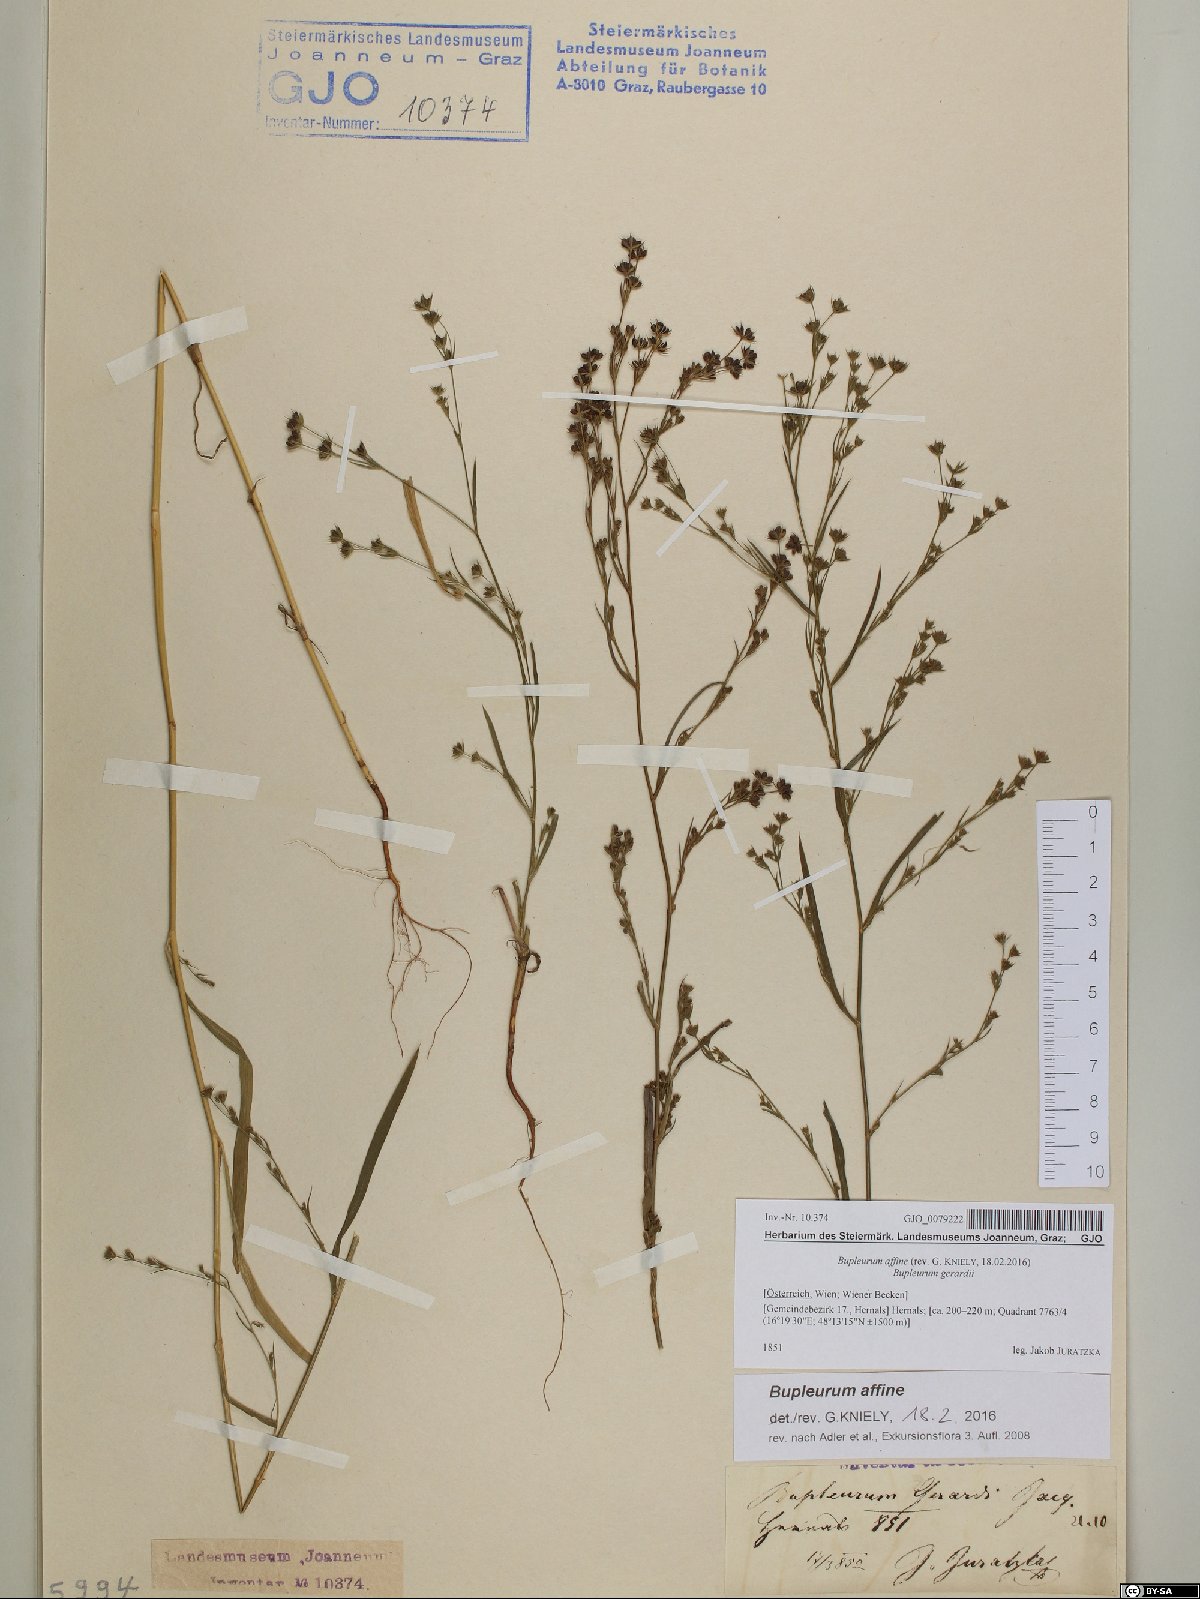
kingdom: Plantae
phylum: Tracheophyta
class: Magnoliopsida
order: Apiales
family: Apiaceae
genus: Bupleurum
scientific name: Bupleurum affine
